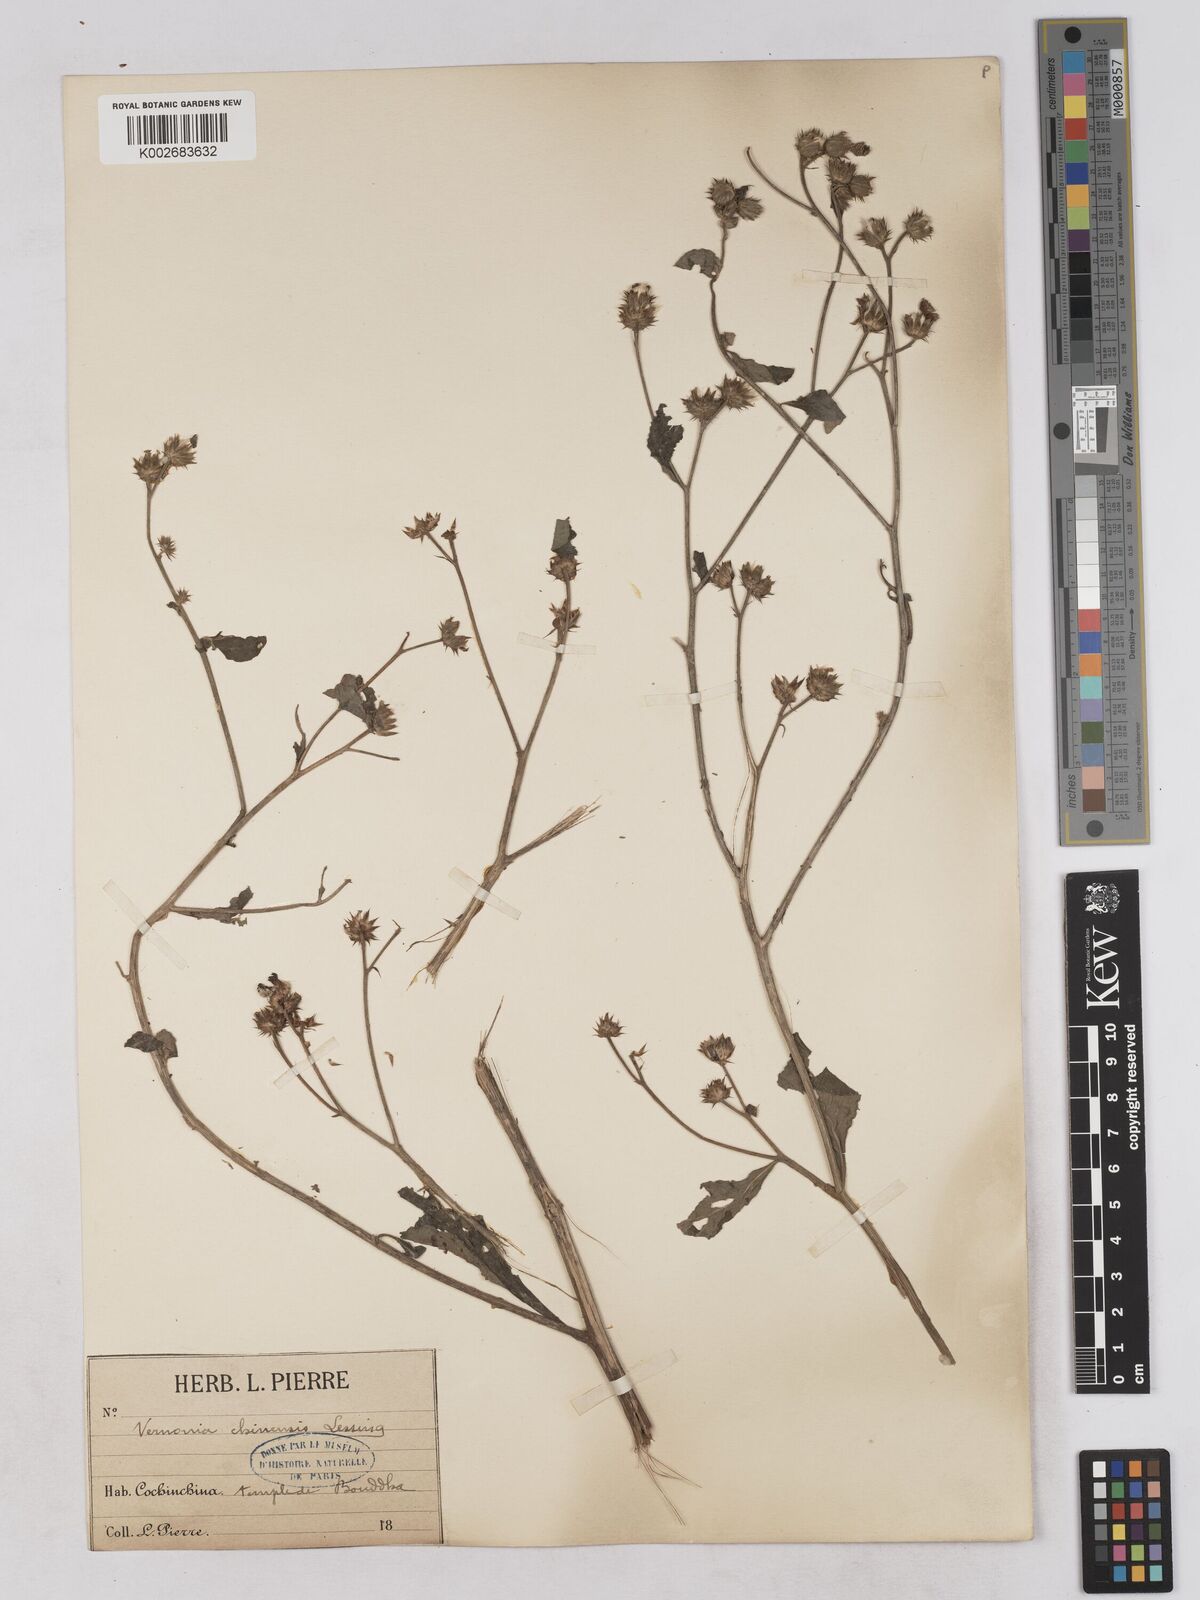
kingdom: Plantae
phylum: Tracheophyta
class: Magnoliopsida
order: Asterales
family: Asteraceae
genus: Cyanthillium
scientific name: Cyanthillium patulum
